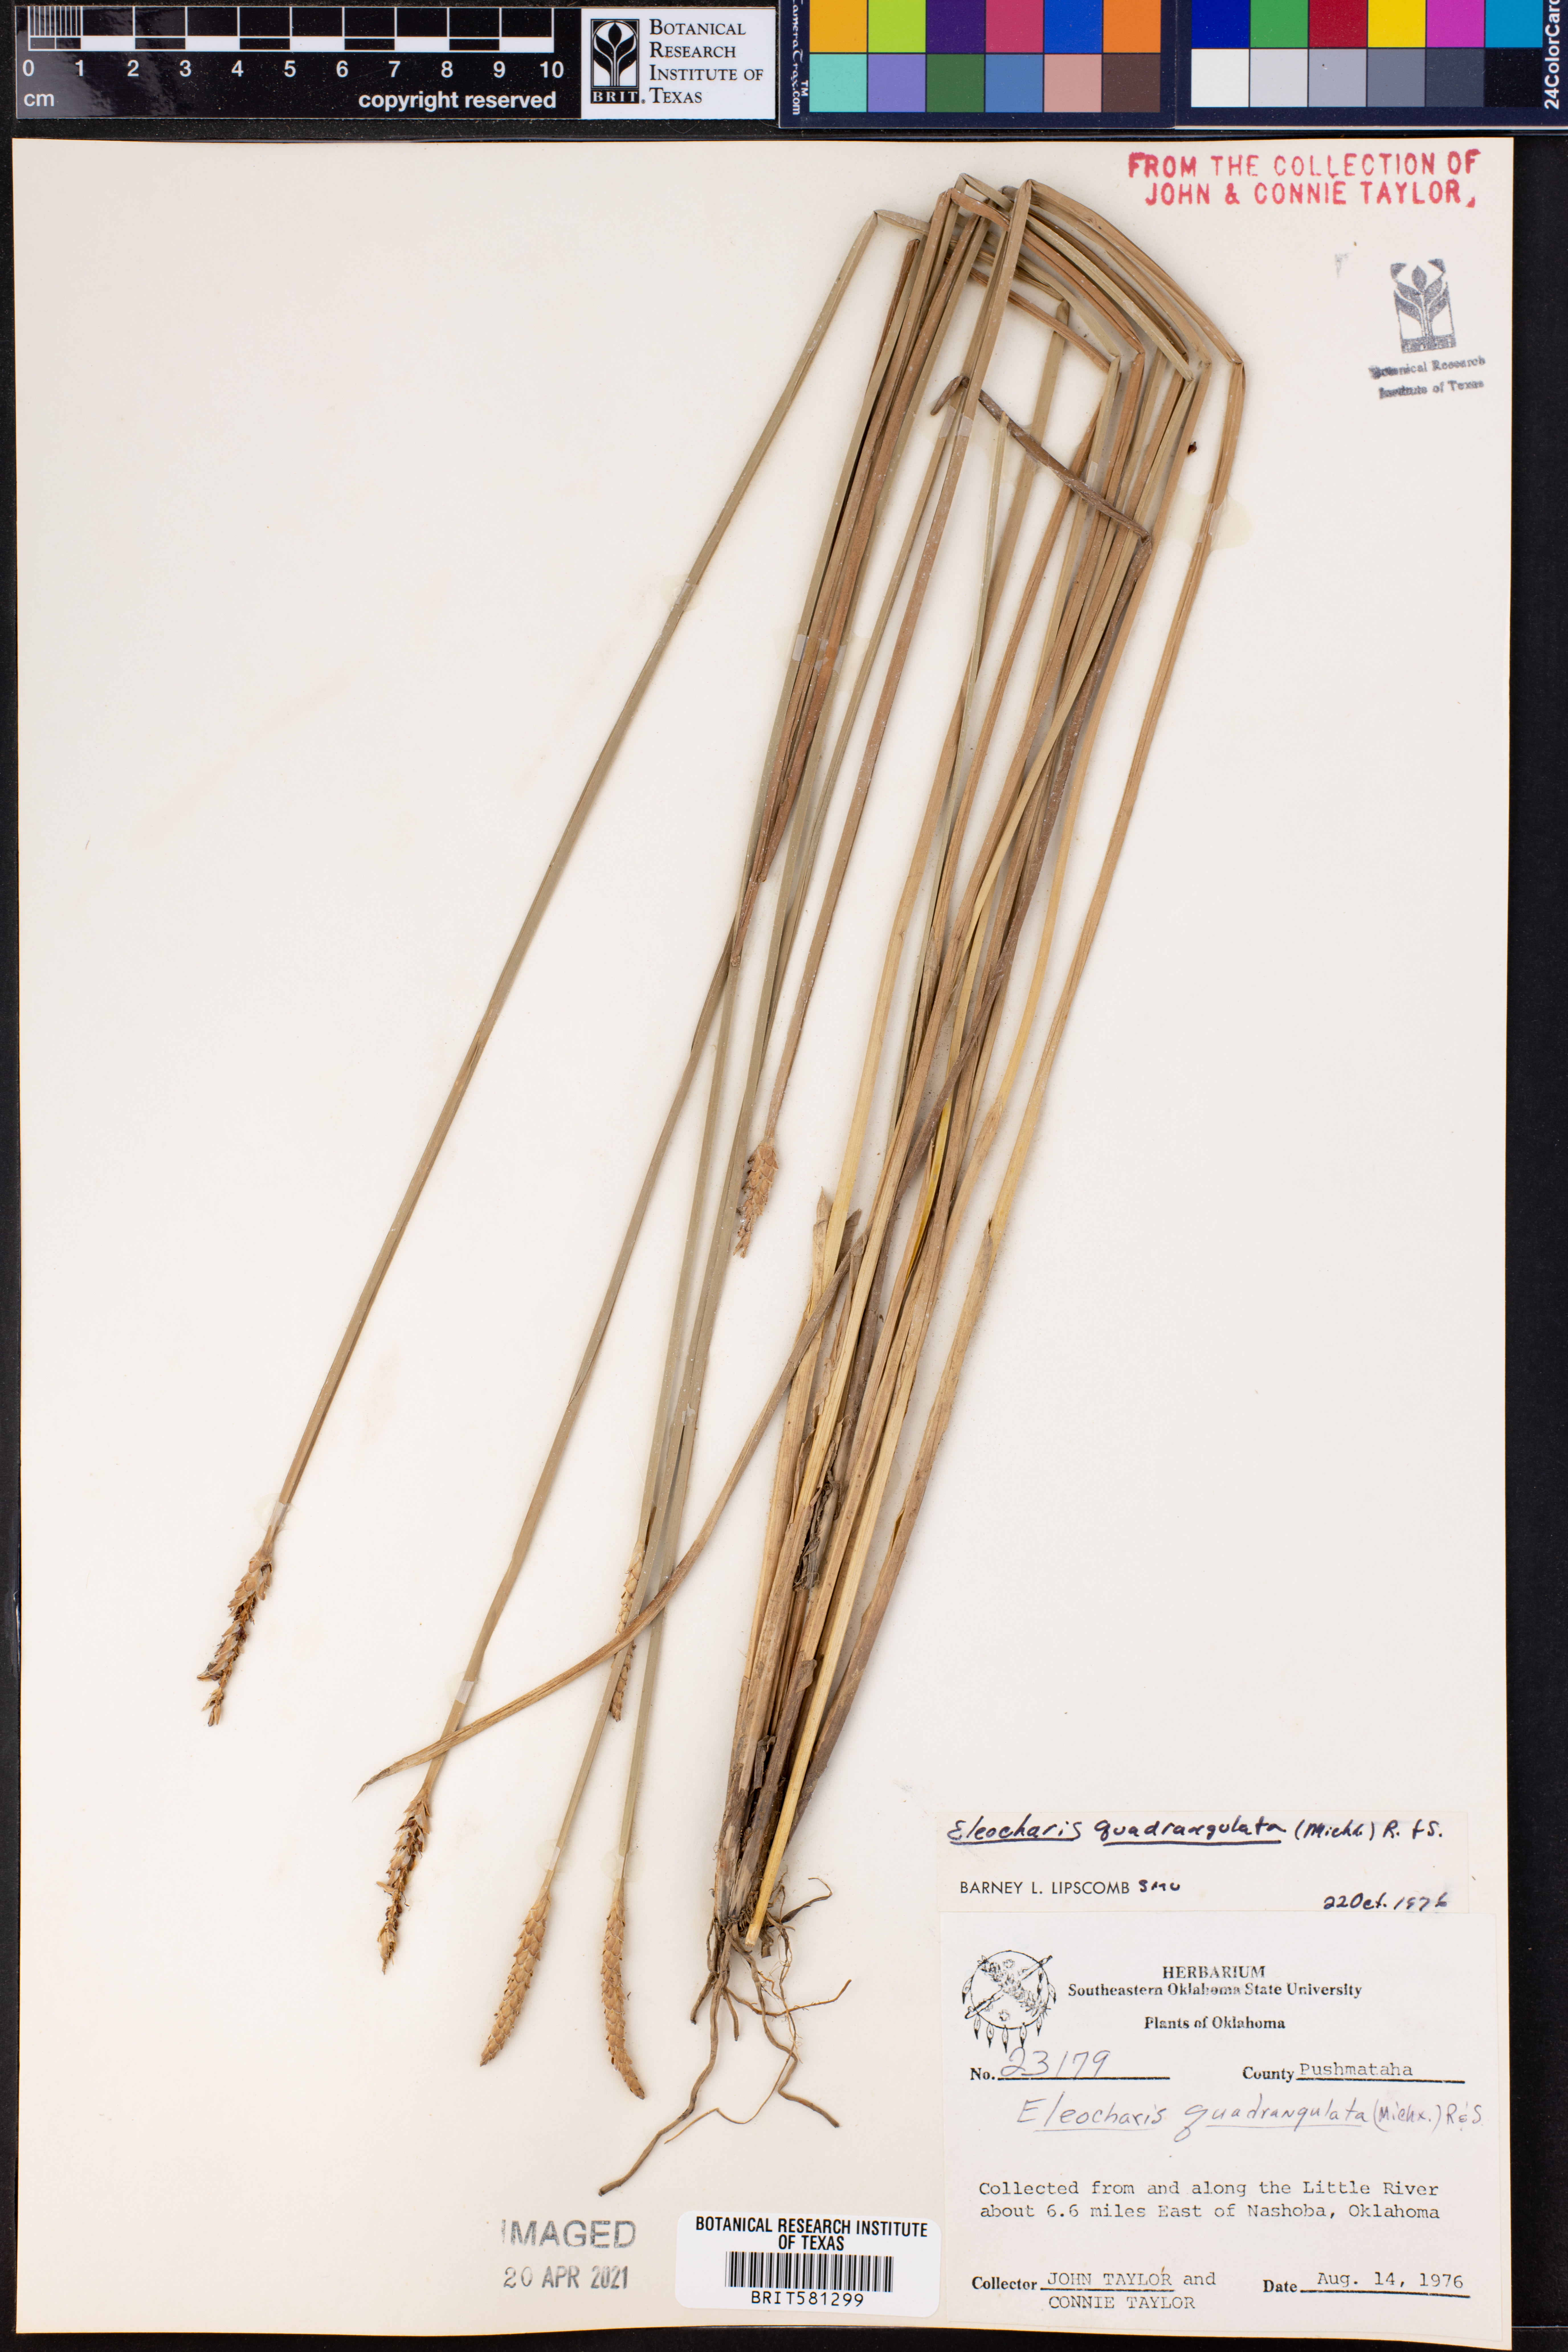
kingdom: Plantae
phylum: Tracheophyta
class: Liliopsida
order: Poales
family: Cyperaceae
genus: Eleocharis
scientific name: Eleocharis quadrangulata
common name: Square-stem spike-rush
